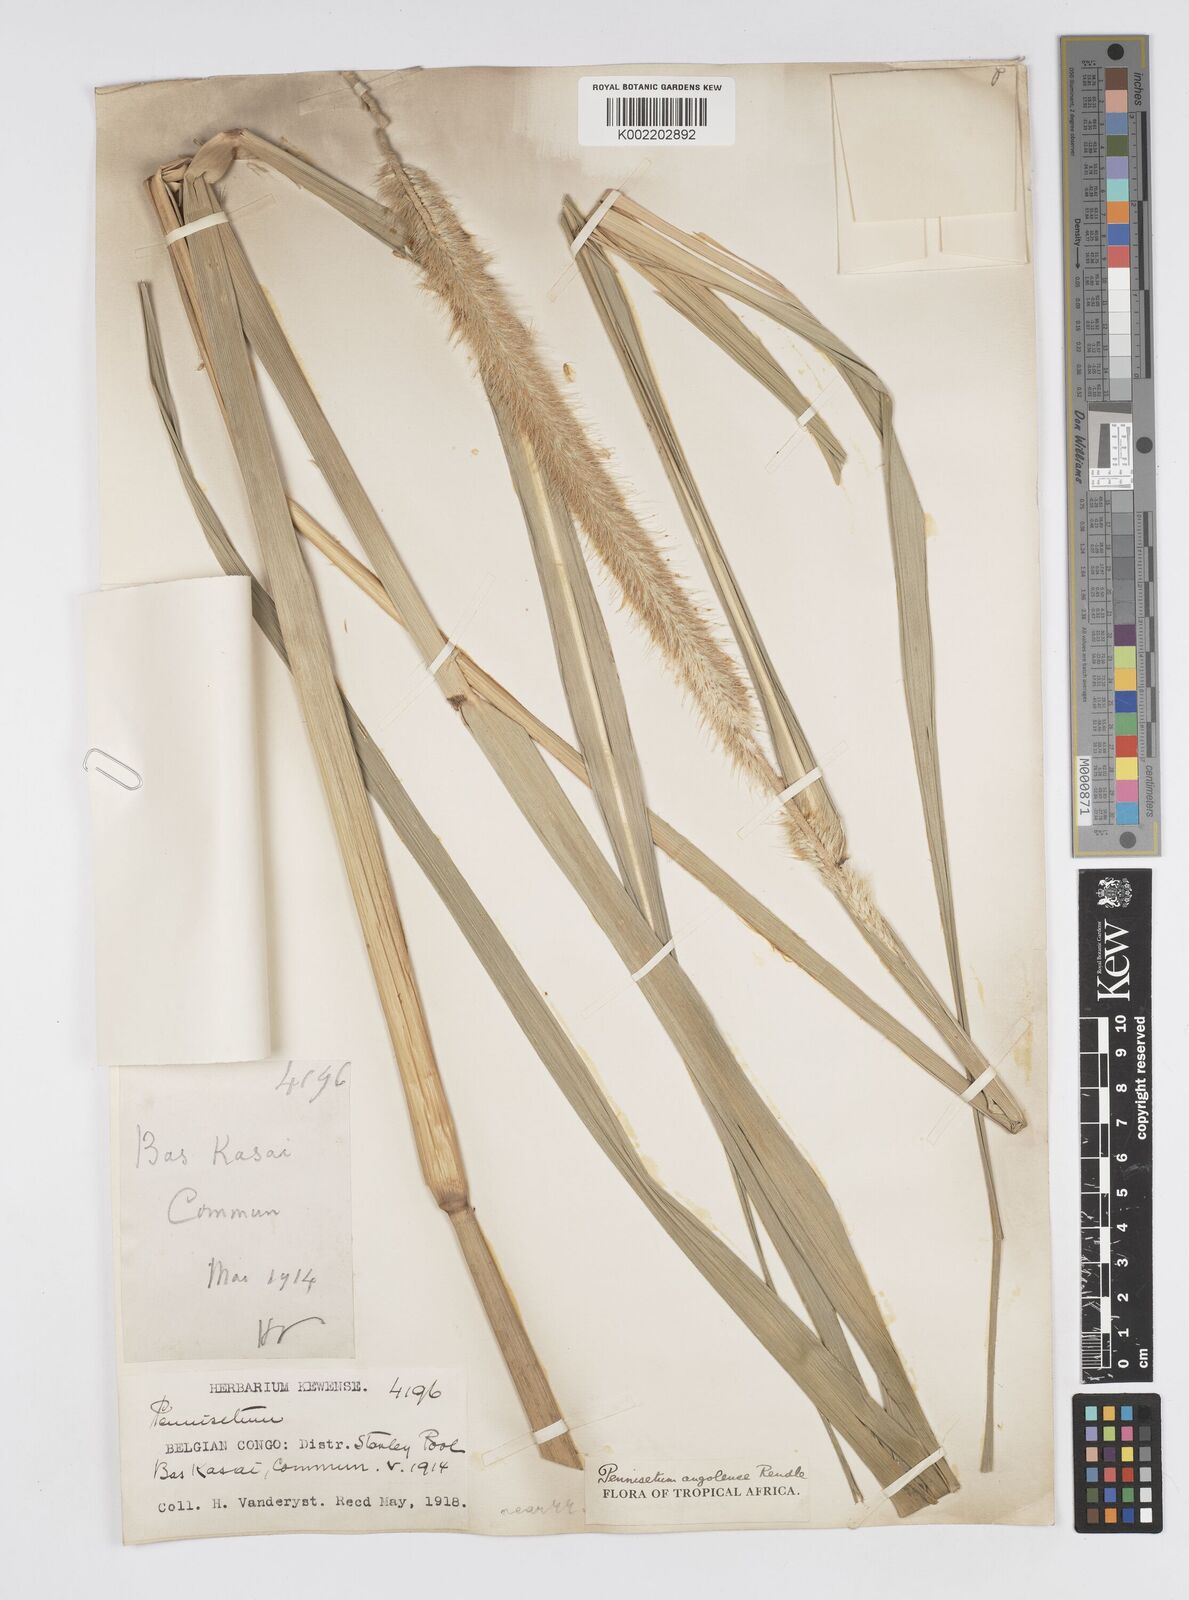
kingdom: Plantae
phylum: Tracheophyta
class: Liliopsida
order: Poales
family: Poaceae
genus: Cenchrus
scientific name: Cenchrus caudatus
